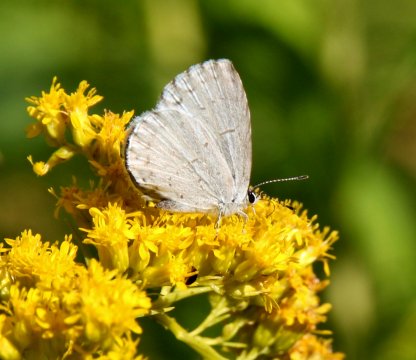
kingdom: Animalia
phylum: Arthropoda
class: Insecta
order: Lepidoptera
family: Lycaenidae
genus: Cyaniris
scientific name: Cyaniris neglecta
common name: Summer Azure
